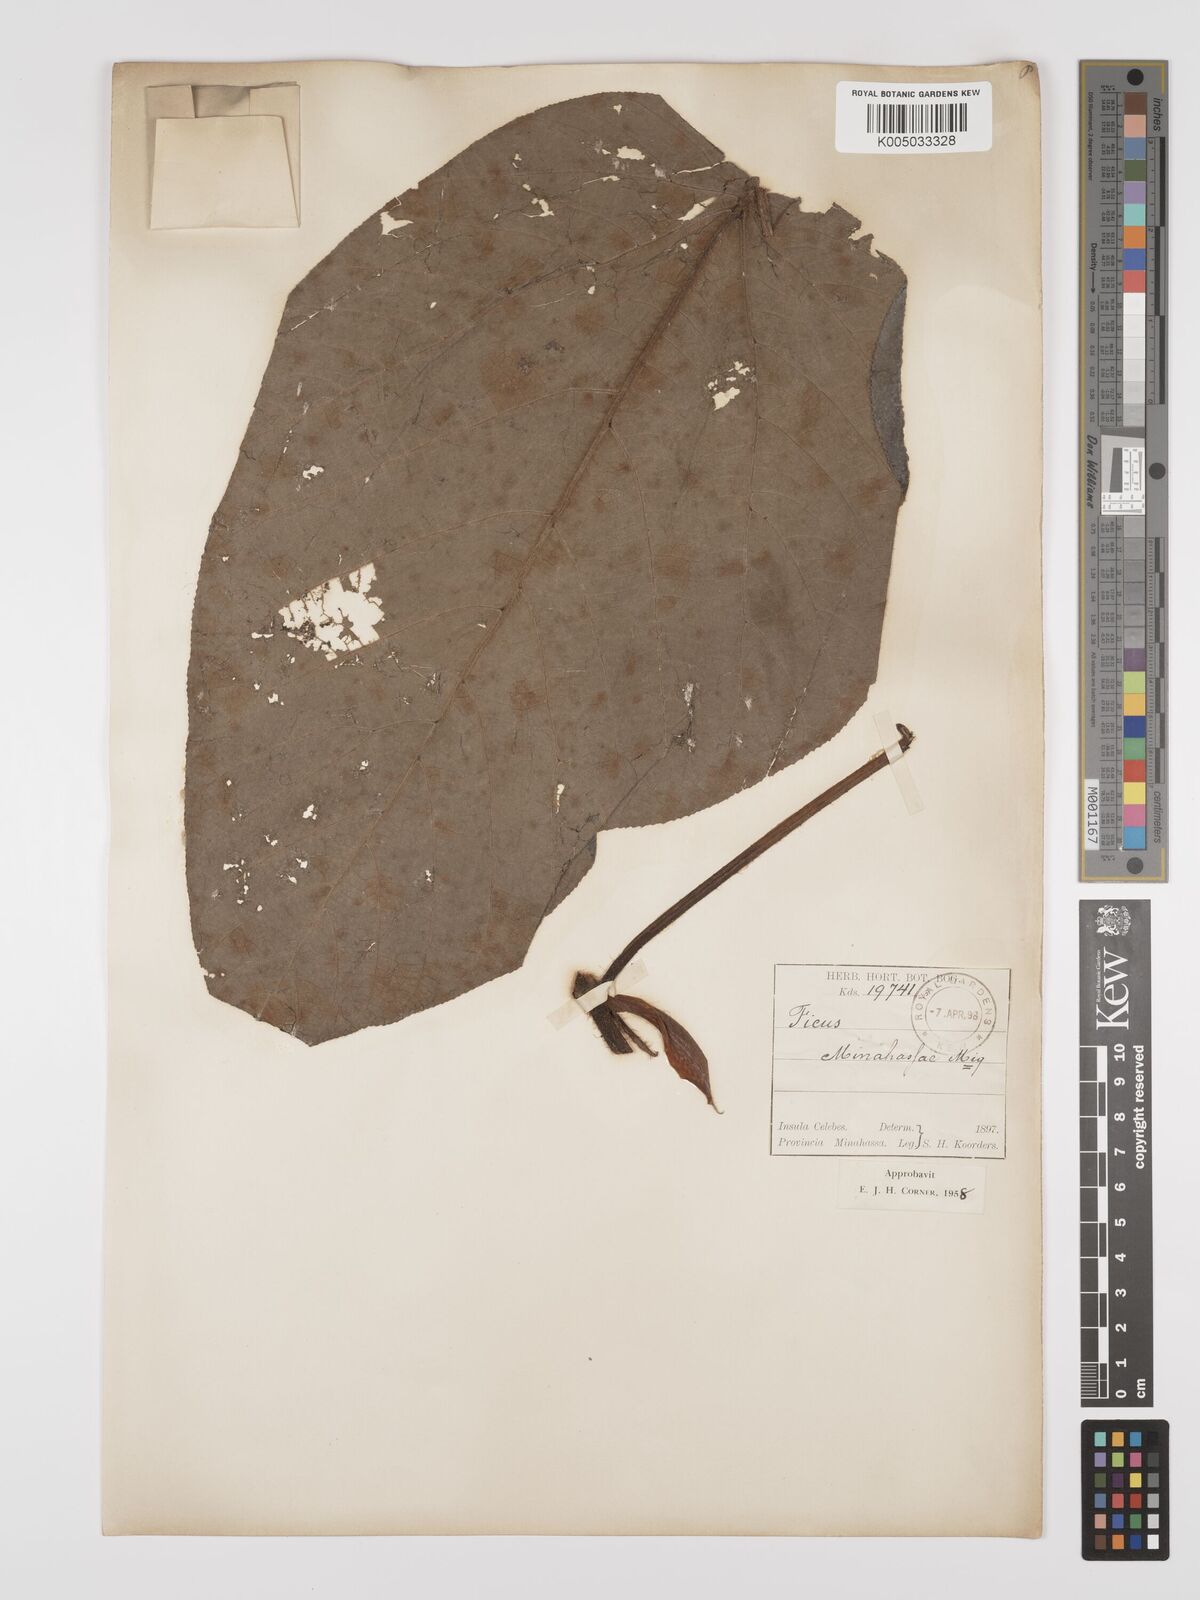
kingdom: Plantae
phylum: Tracheophyta
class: Magnoliopsida
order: Rosales
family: Moraceae
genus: Ficus
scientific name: Ficus minahassae
